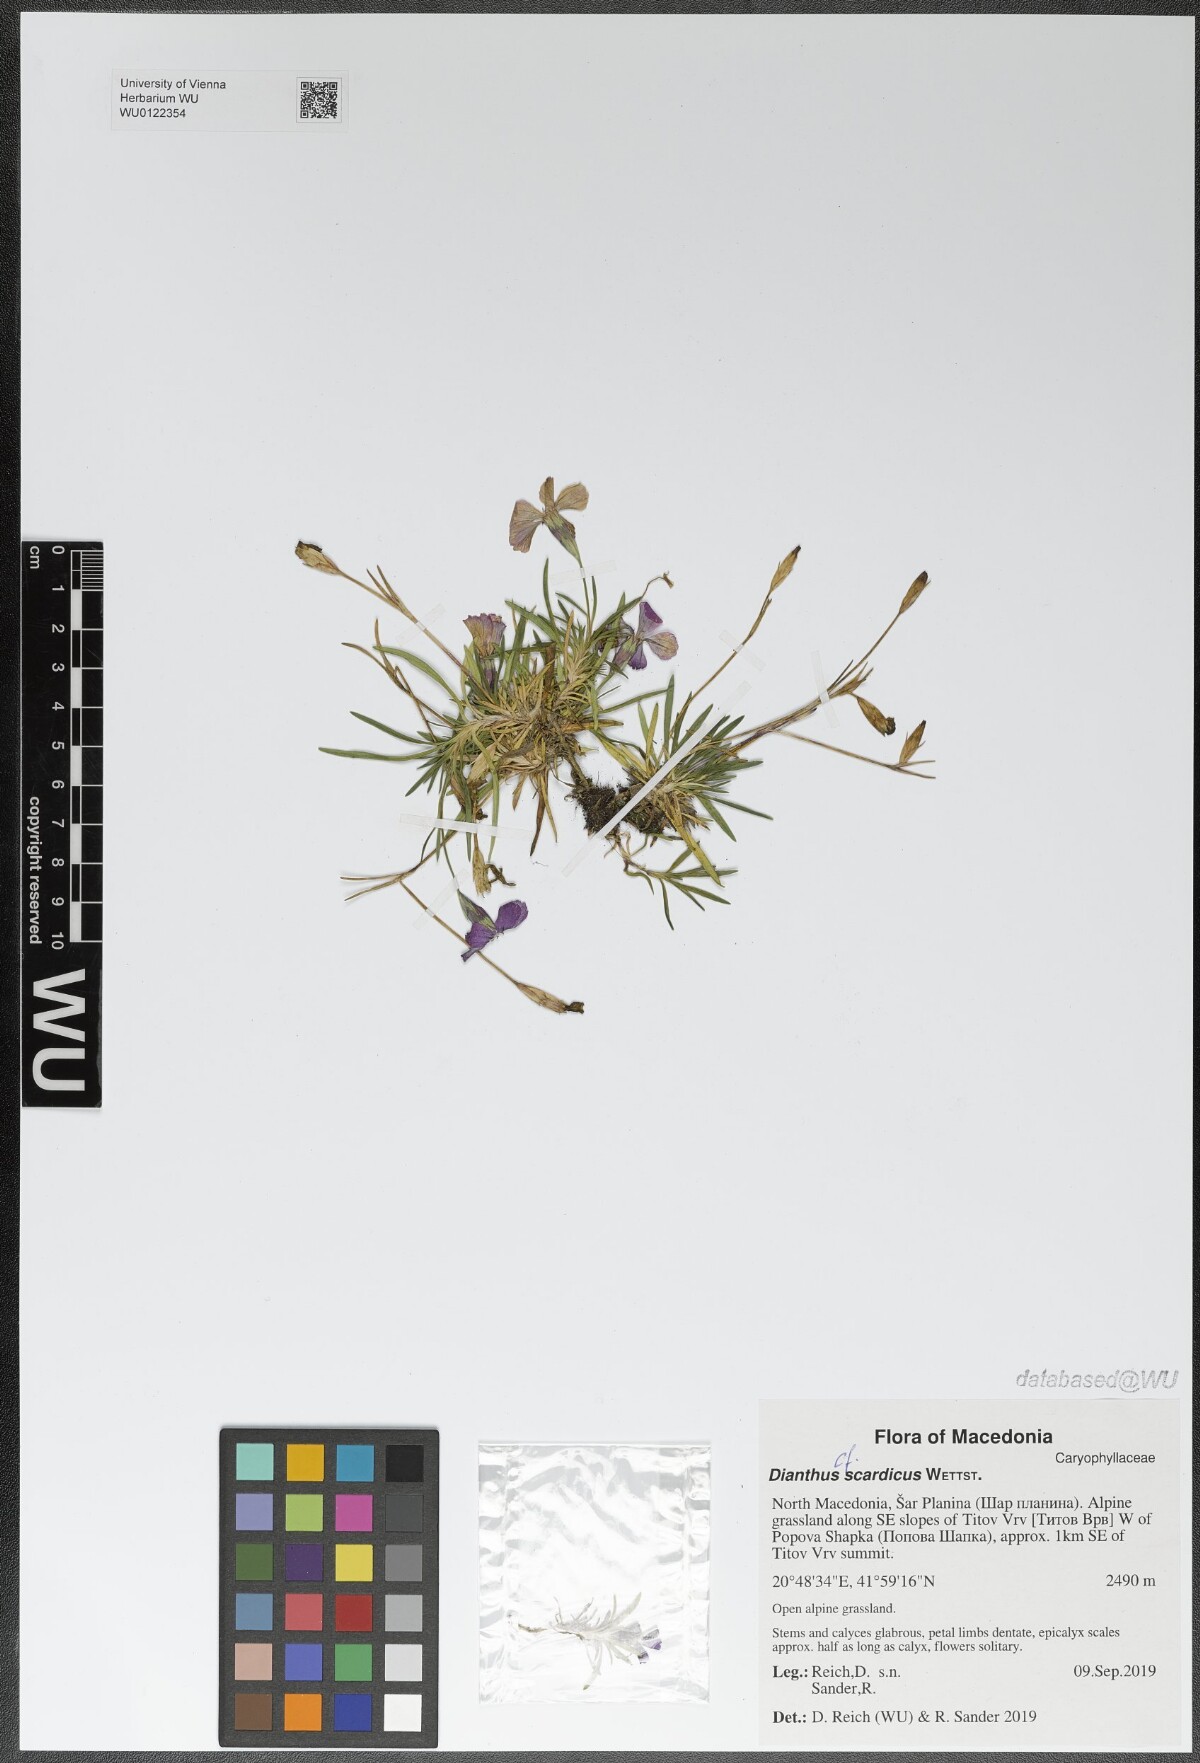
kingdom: Plantae
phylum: Tracheophyta
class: Magnoliopsida
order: Caryophyllales
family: Caryophyllaceae
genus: Dianthus
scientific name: Dianthus scardicus
